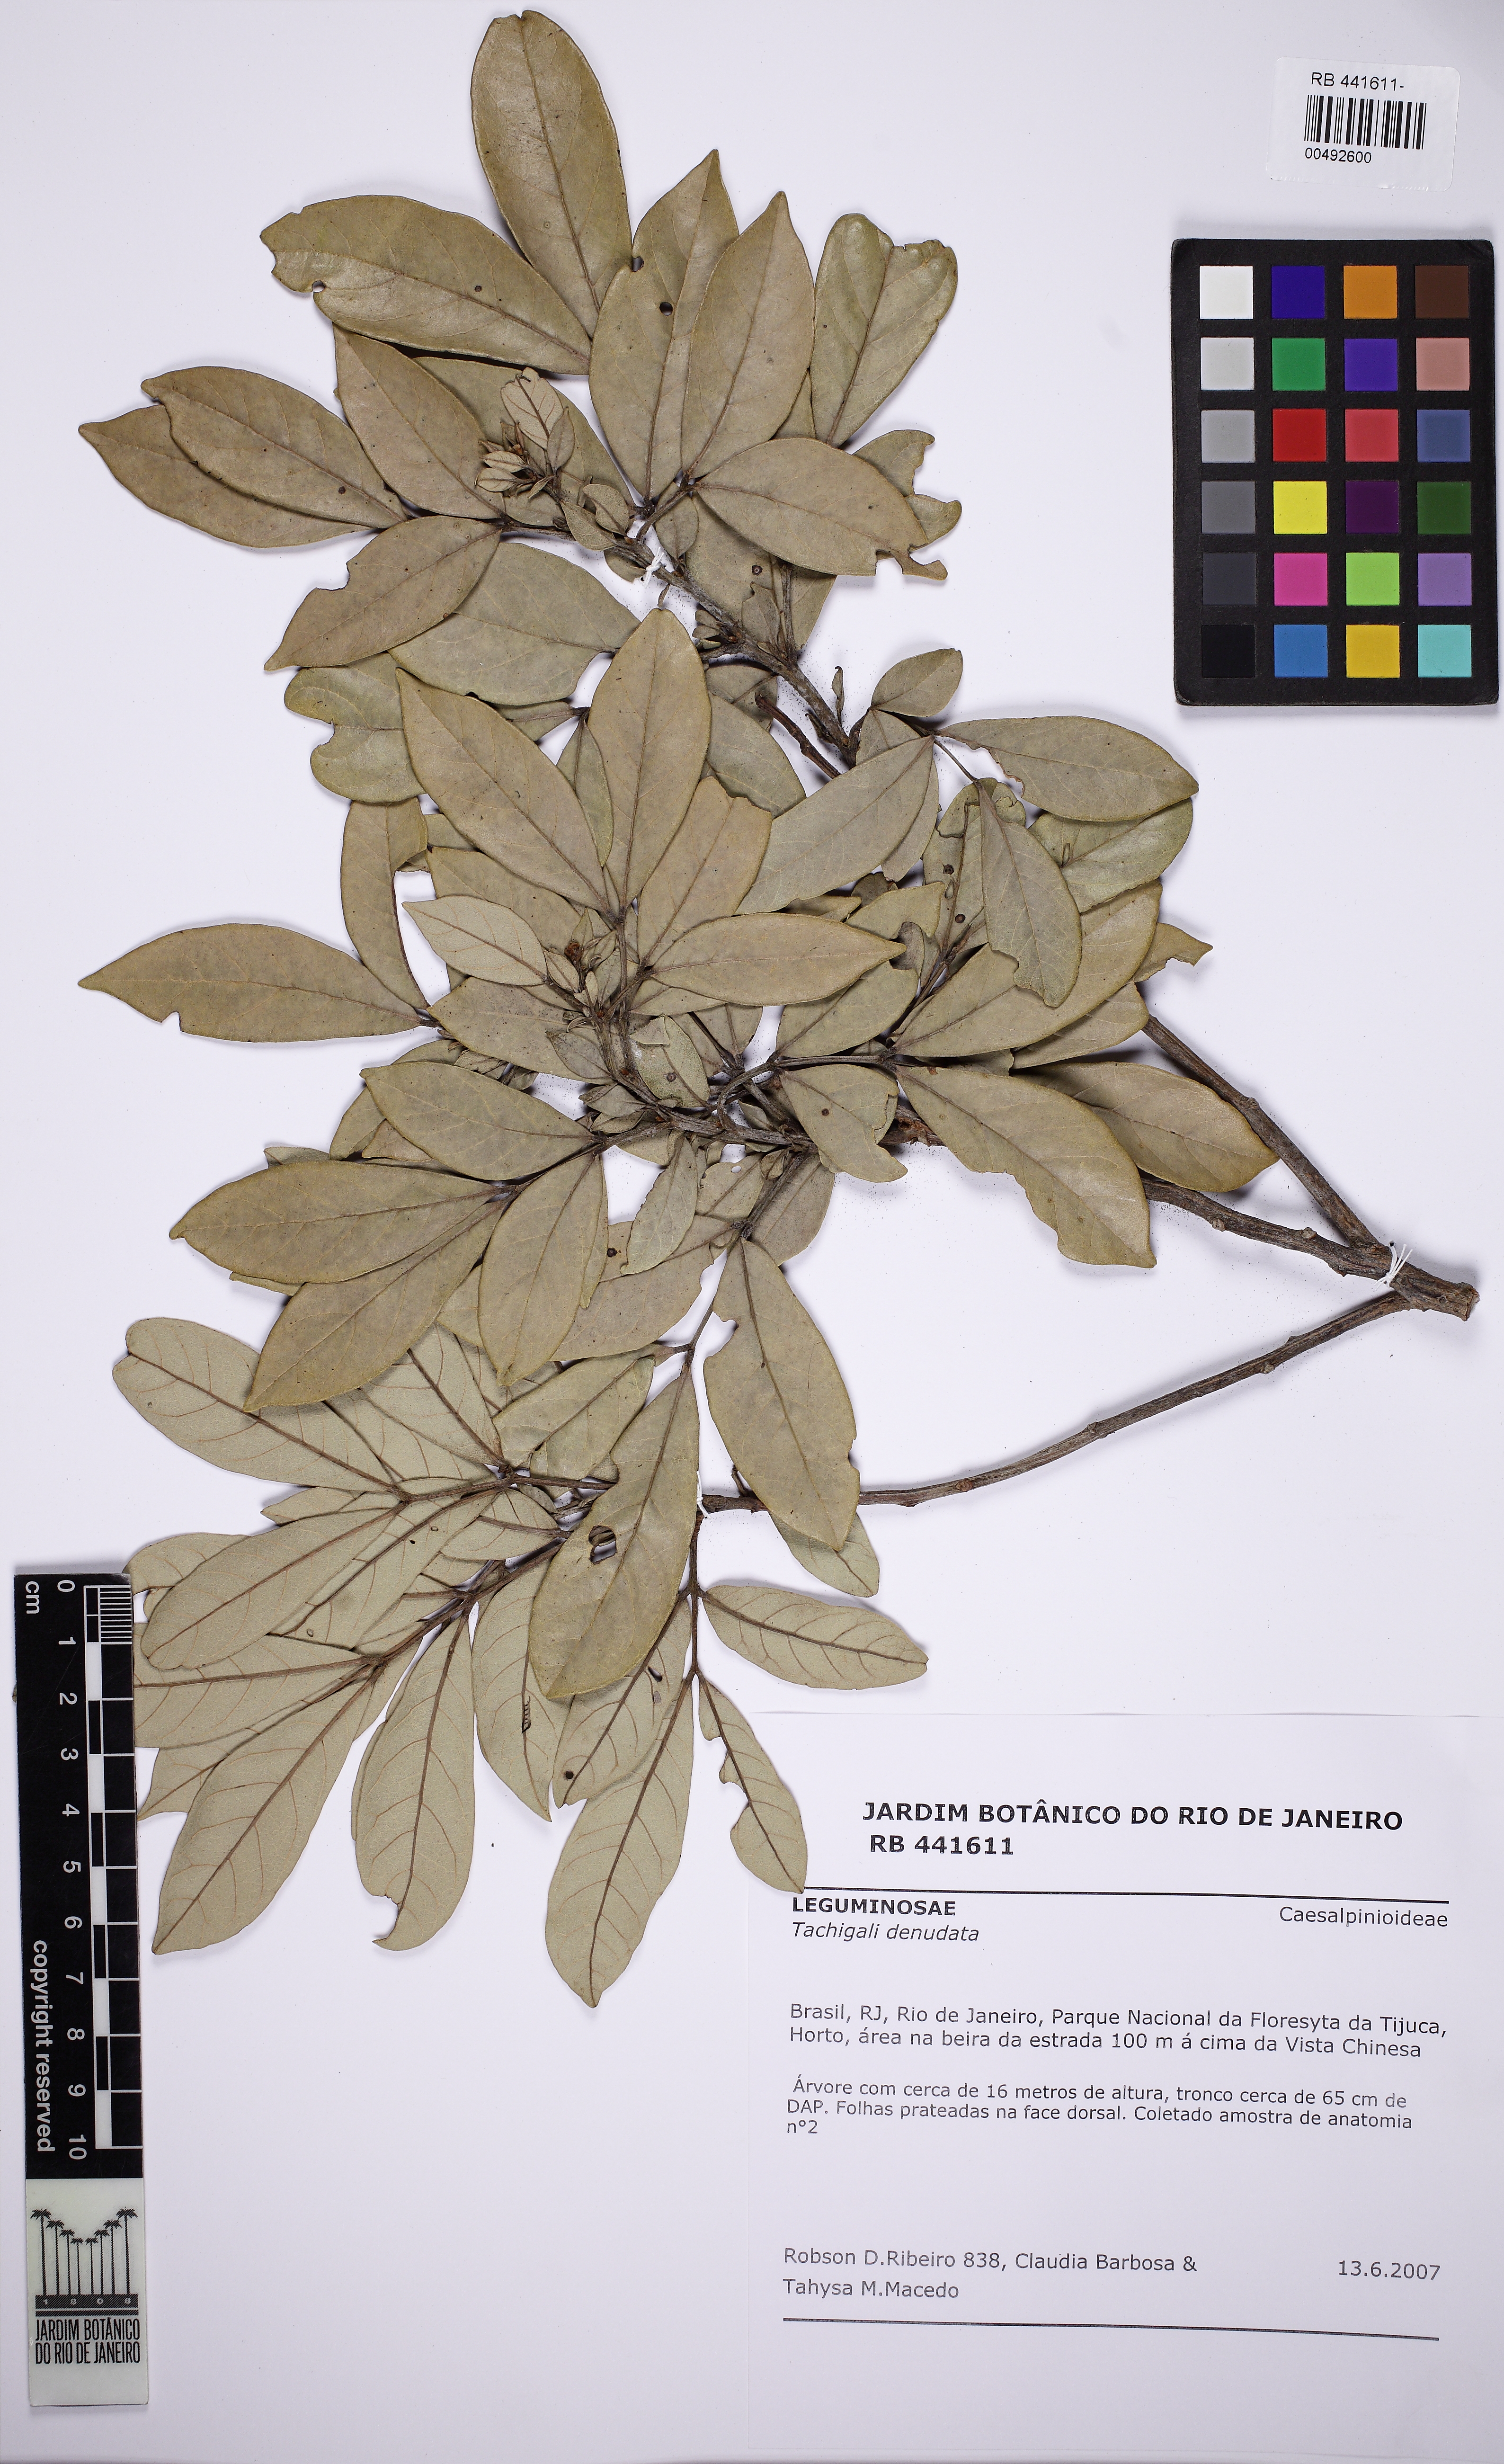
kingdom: Plantae
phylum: Tracheophyta
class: Magnoliopsida
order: Fabales
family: Fabaceae
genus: Tachigali
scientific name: Tachigali denudata
